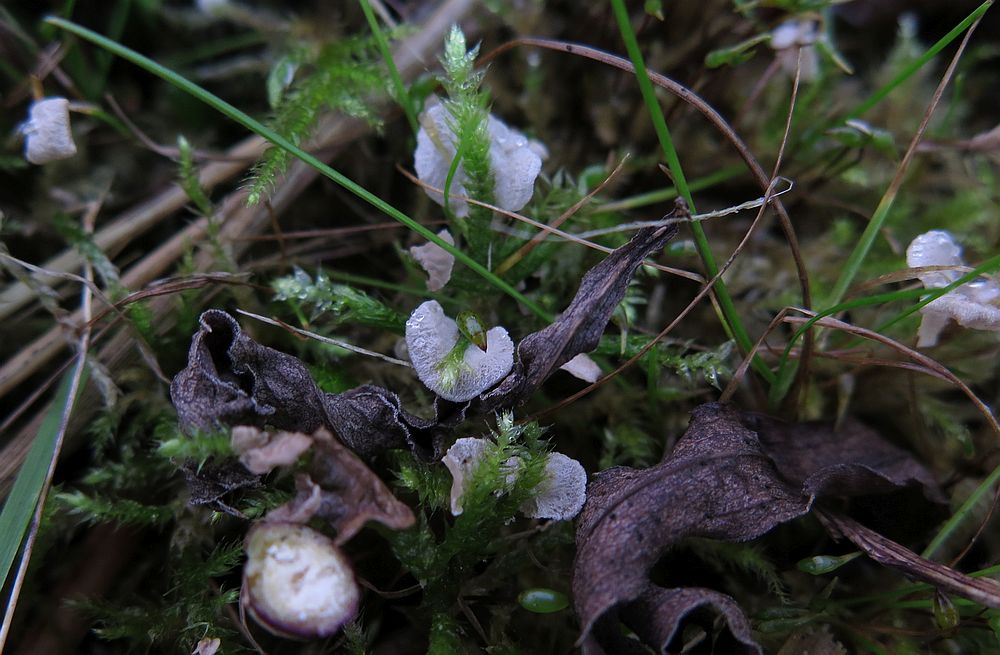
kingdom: Fungi
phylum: Basidiomycota
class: Agaricomycetes
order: Agaricales
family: Hygrophoraceae
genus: Arrhenia
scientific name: Arrhenia retiruga
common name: lille fontænehat
